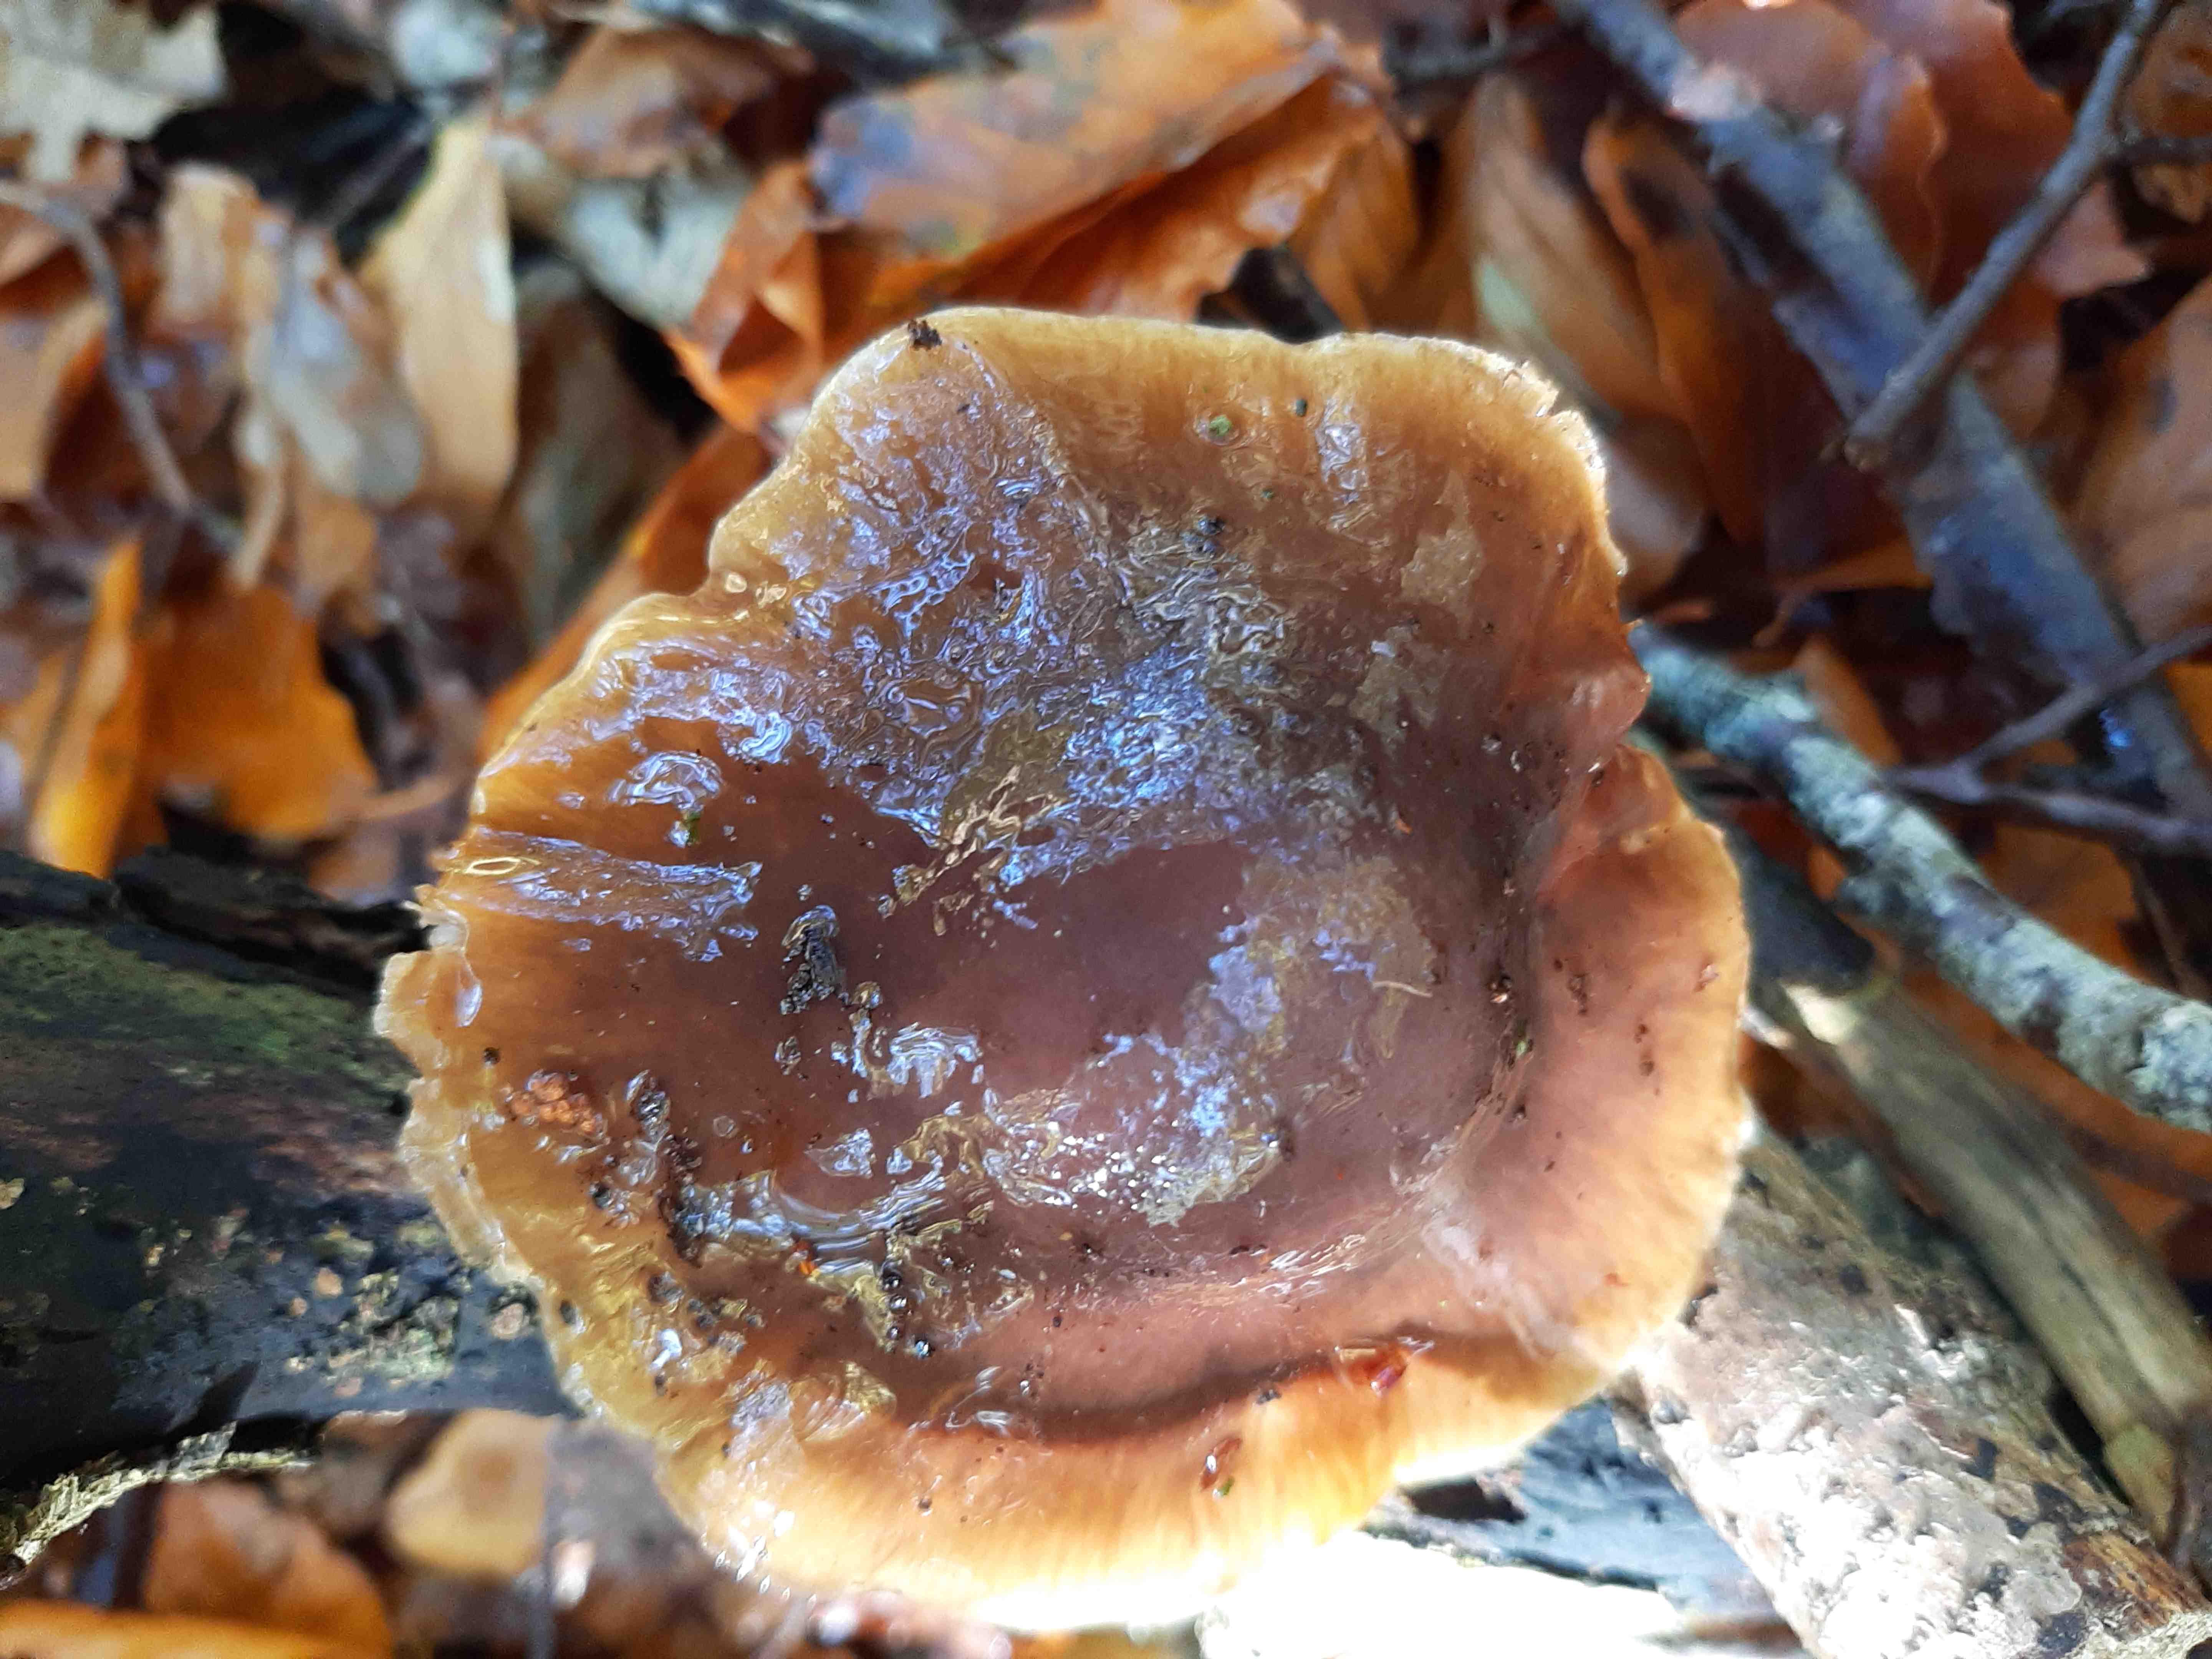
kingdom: Fungi
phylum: Basidiomycota
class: Agaricomycetes
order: Agaricales
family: Cortinariaceae
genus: Cortinarius
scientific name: Cortinarius elatior
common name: høj slørhat
